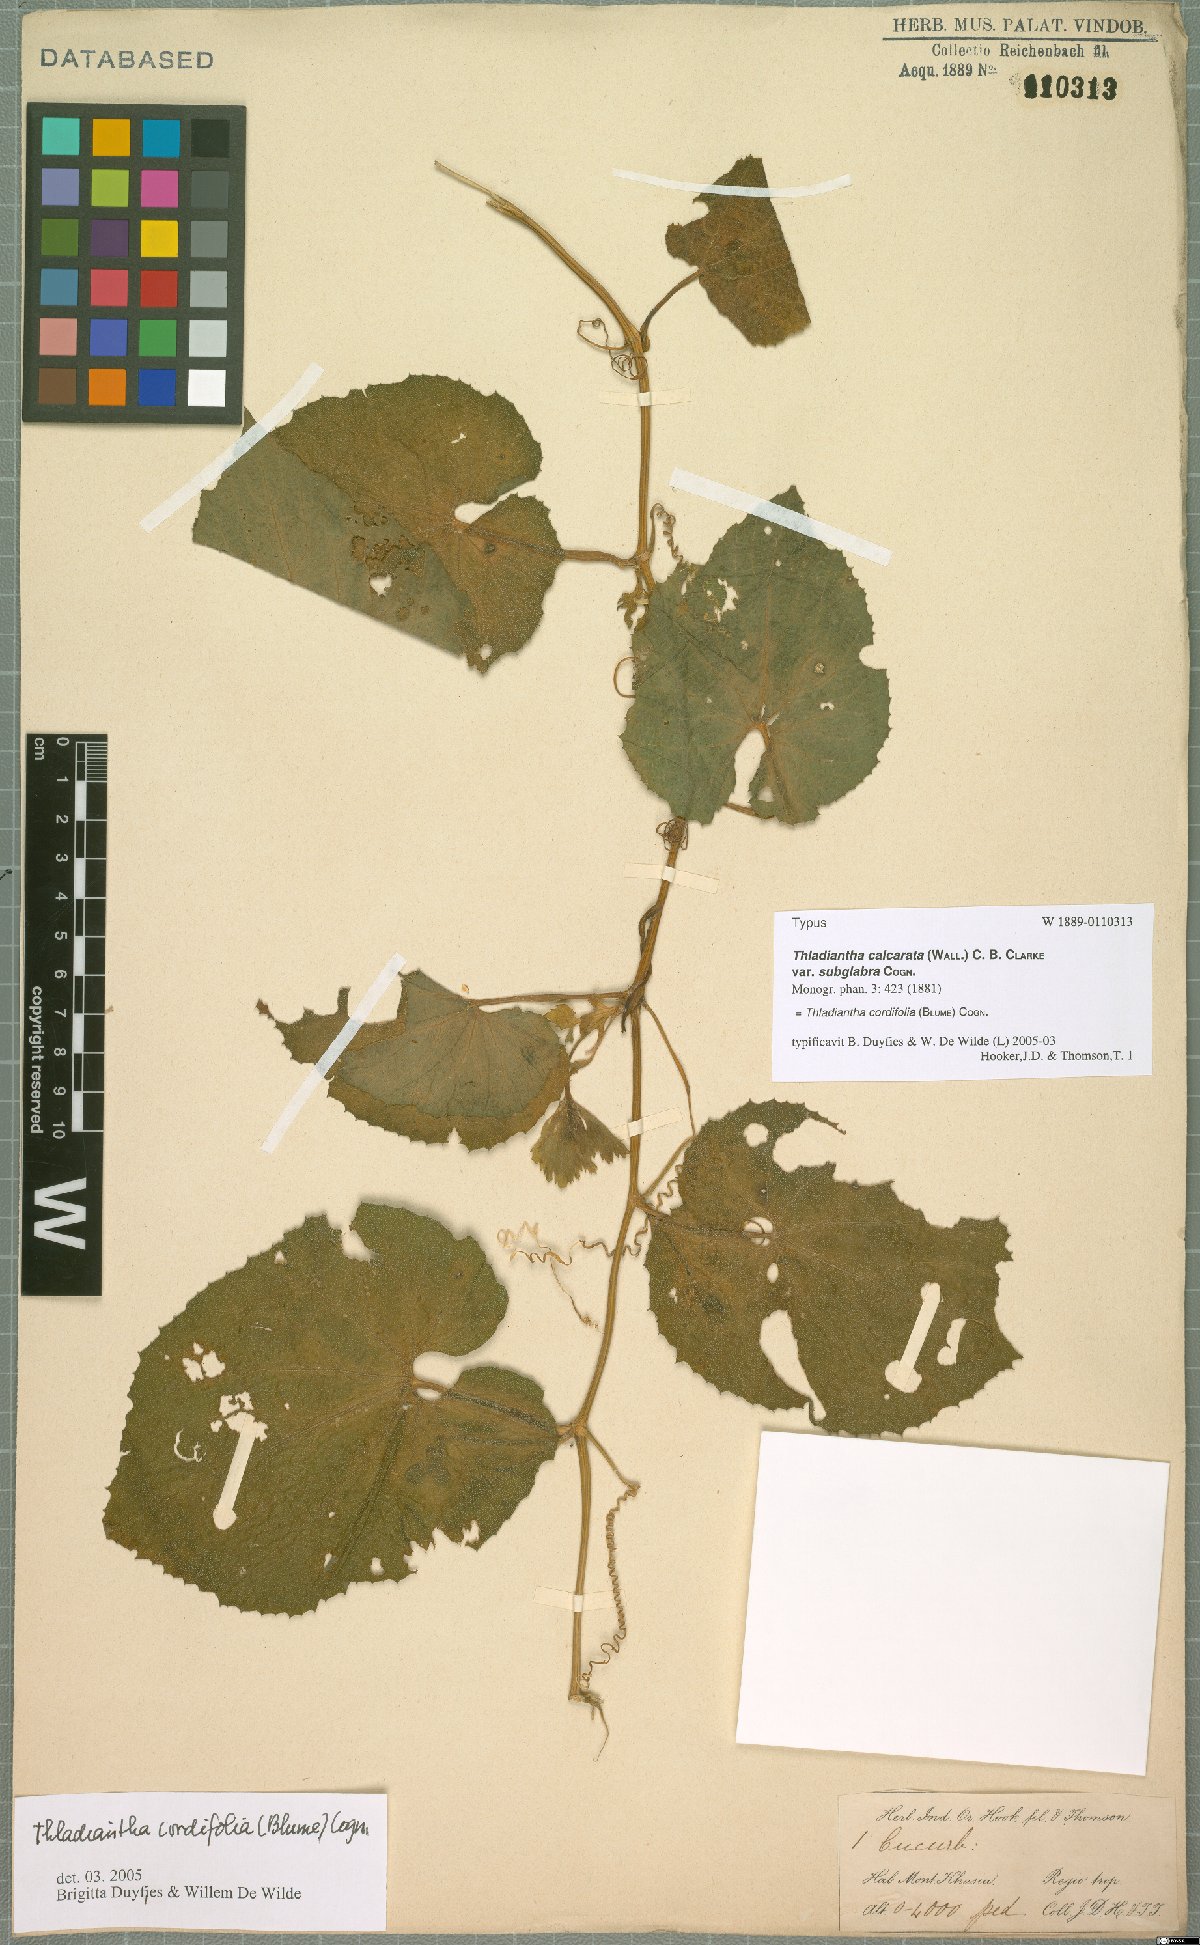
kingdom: Plantae
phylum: Tracheophyta
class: Magnoliopsida
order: Cucurbitales
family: Cucurbitaceae
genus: Thladiantha
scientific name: Thladiantha cordifolia
